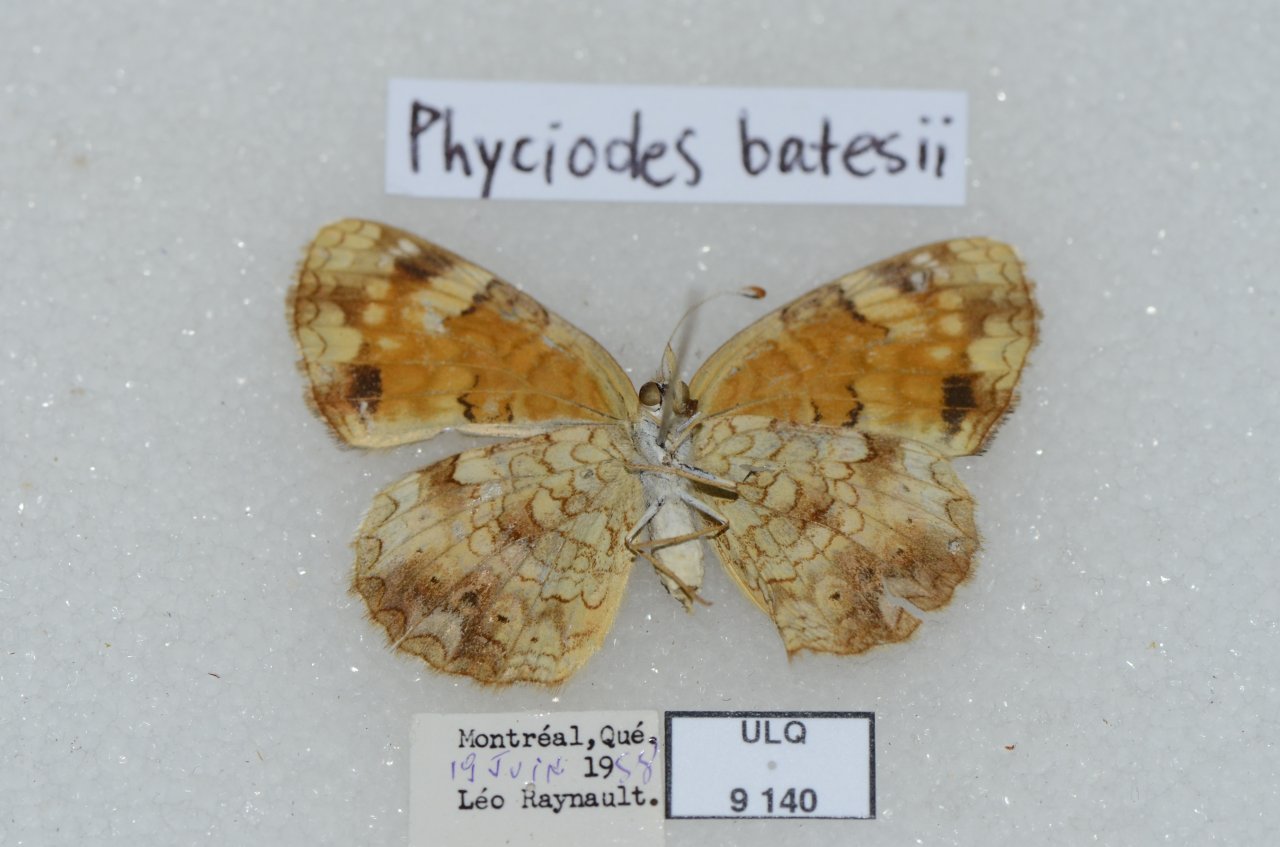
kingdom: Animalia
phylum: Arthropoda
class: Insecta
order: Lepidoptera
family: Nymphalidae
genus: Phyciodes
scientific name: Phyciodes tharos
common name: Northern Crescent
